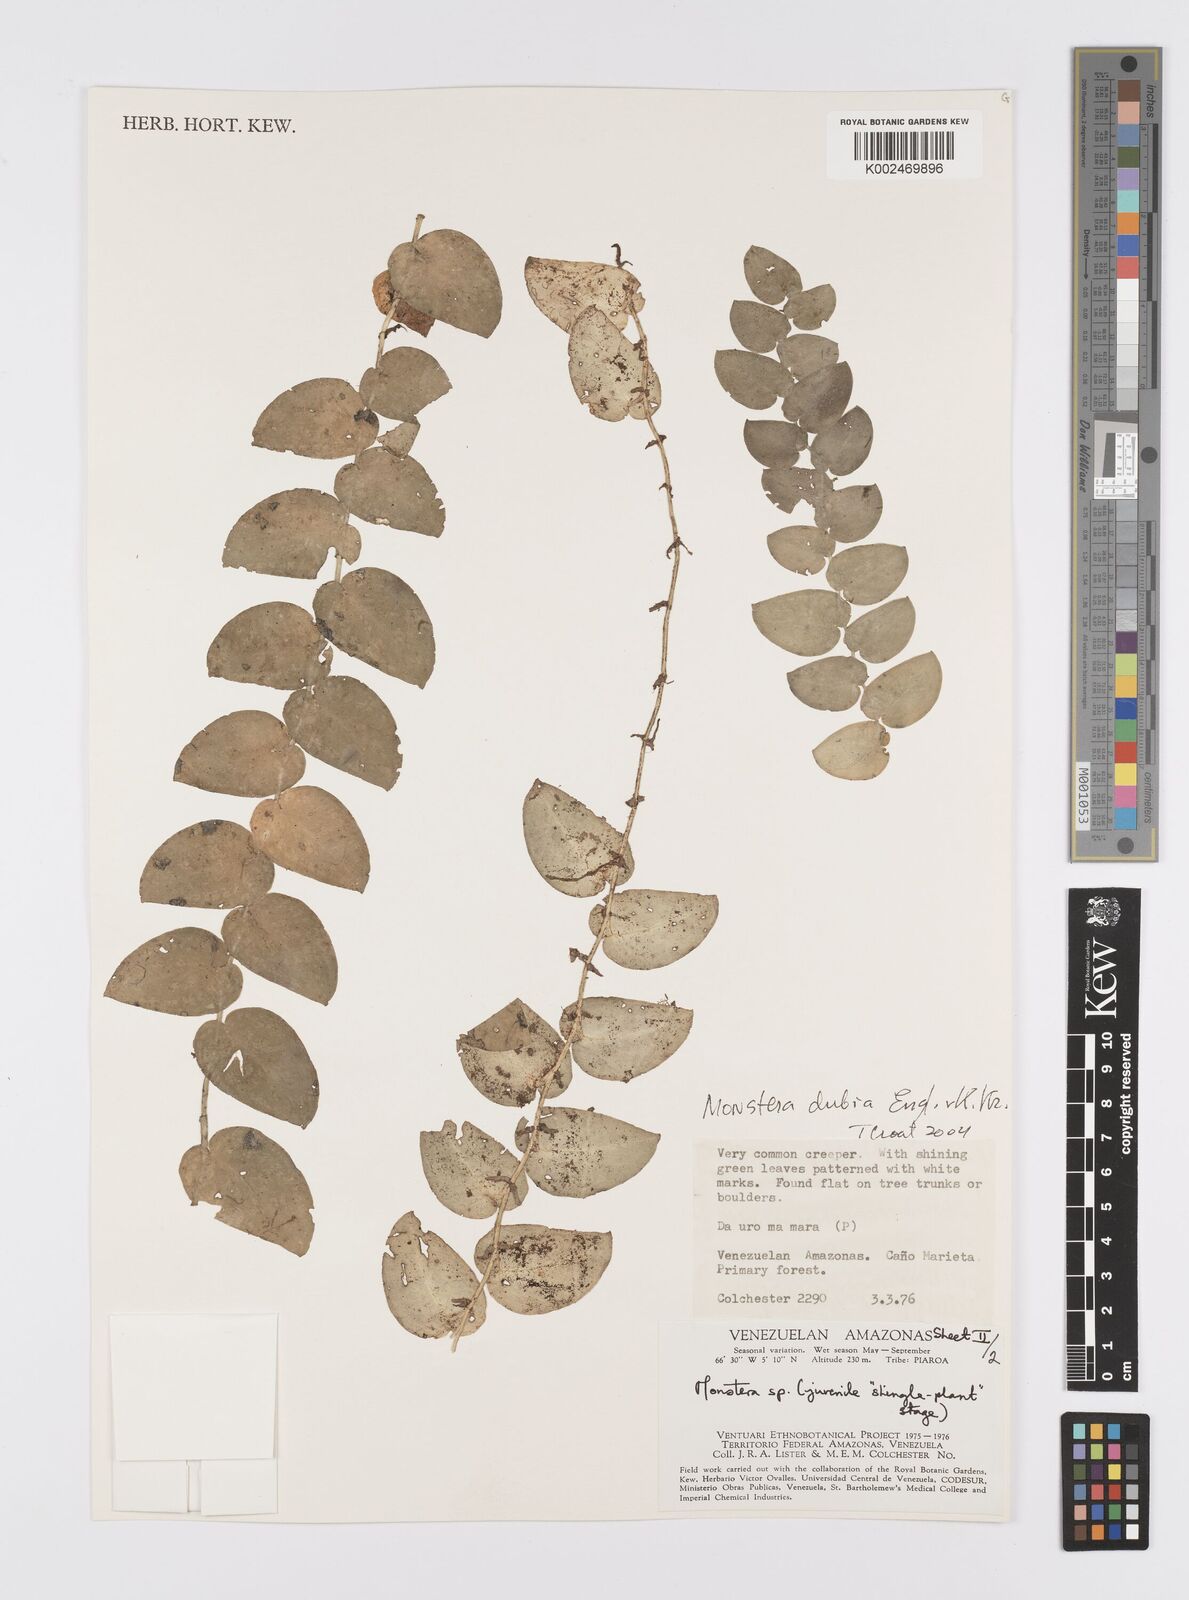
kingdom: Plantae
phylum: Tracheophyta
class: Liliopsida
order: Alismatales
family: Araceae
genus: Monstera
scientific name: Monstera dubia
